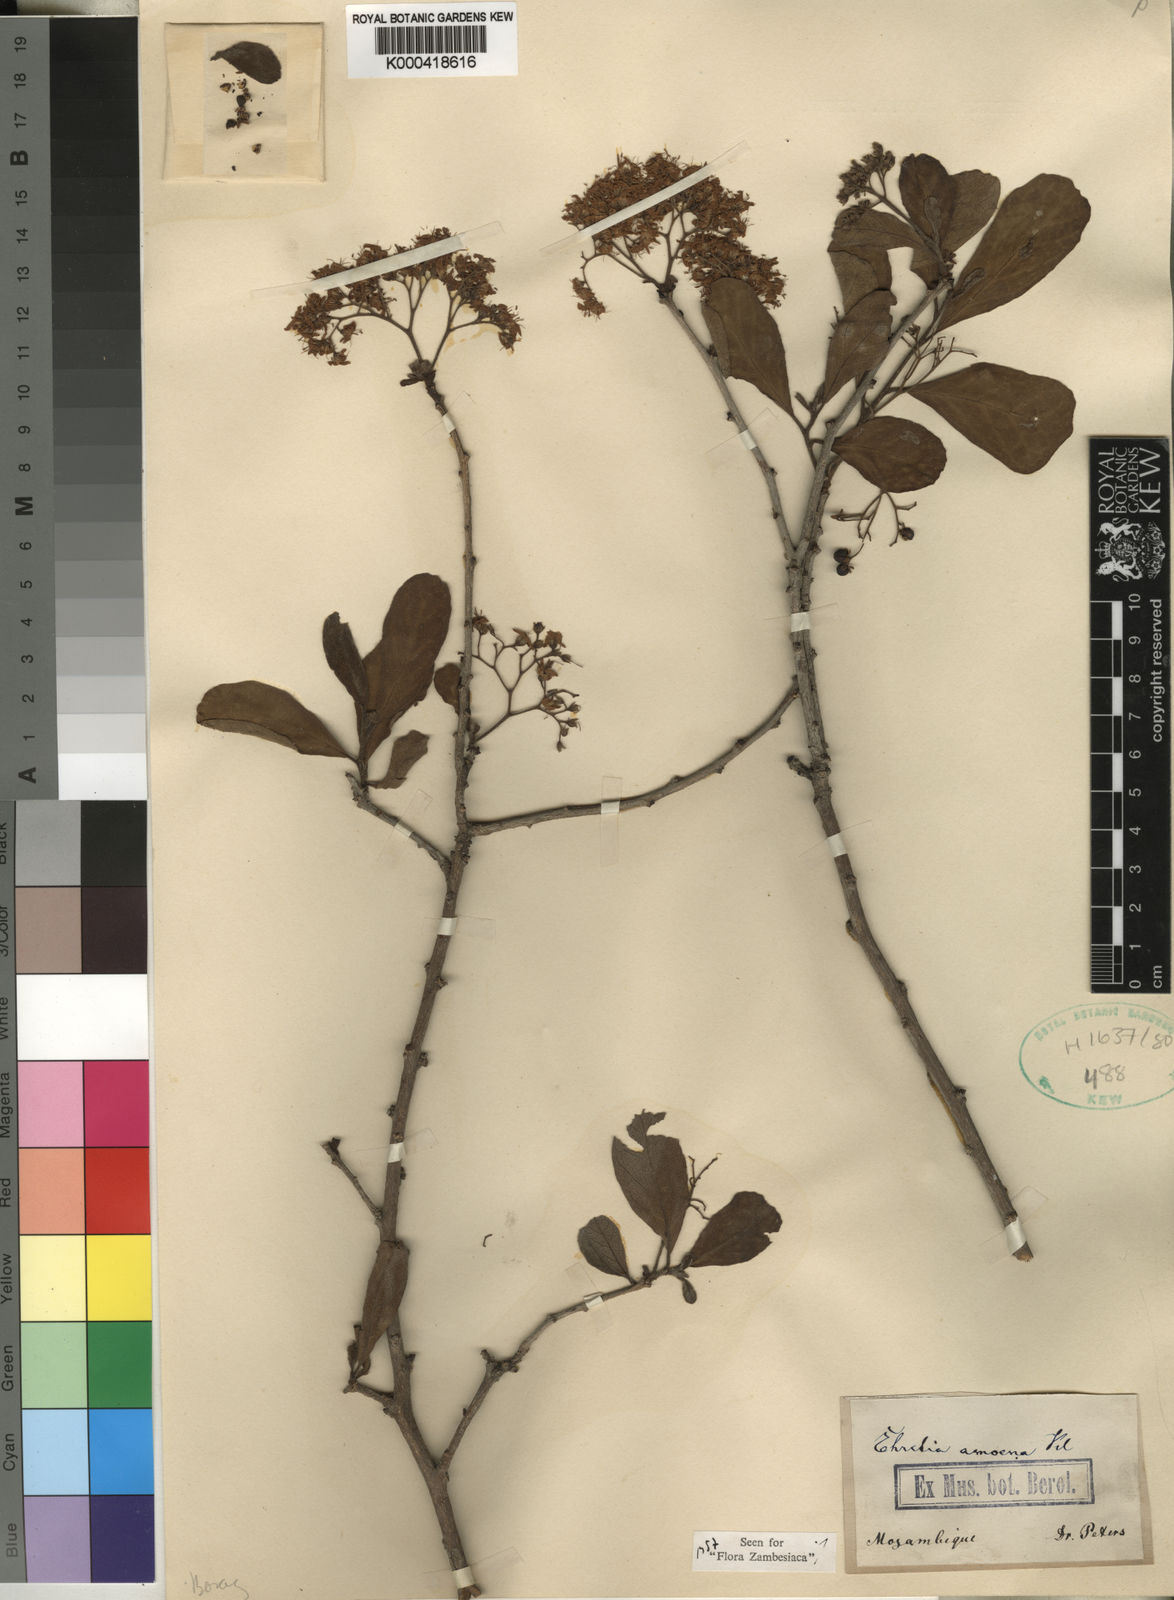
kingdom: Plantae
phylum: Tracheophyta
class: Magnoliopsida
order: Boraginales
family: Ehretiaceae
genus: Ehretia
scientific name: Ehretia amoena
